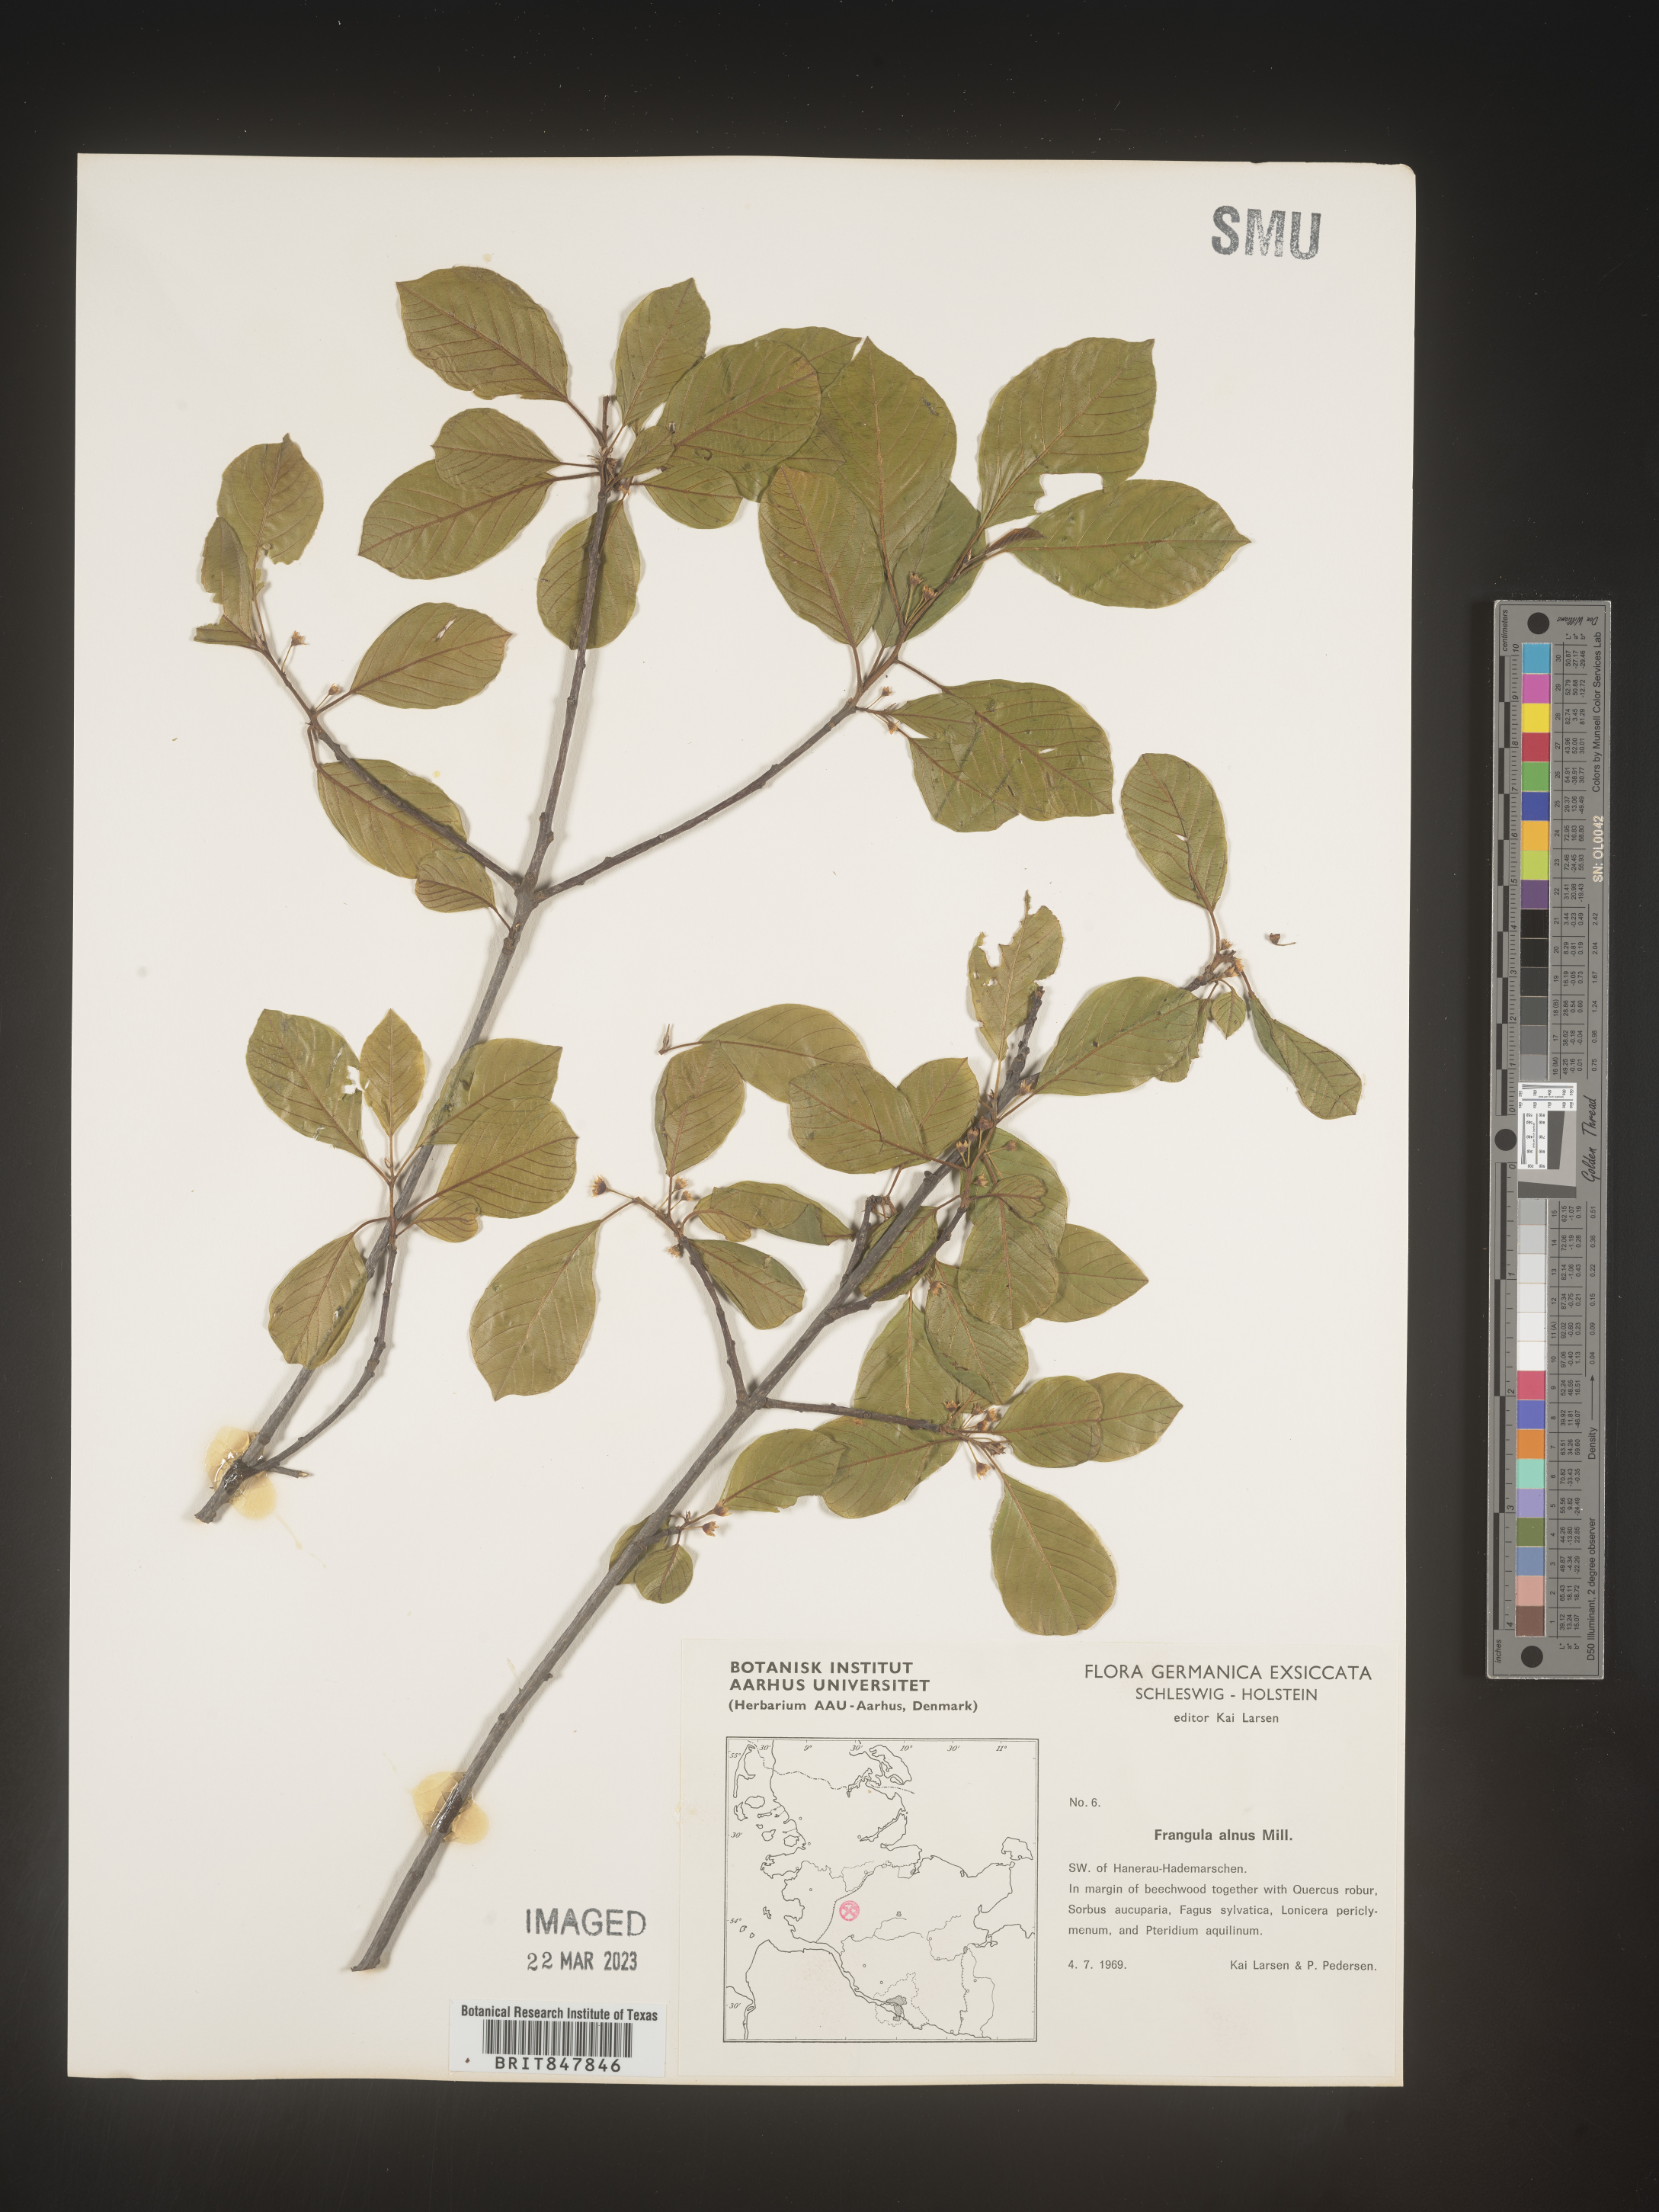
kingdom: Plantae
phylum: Tracheophyta
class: Magnoliopsida
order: Rosales
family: Rhamnaceae
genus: Rhamnus
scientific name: Rhamnus
